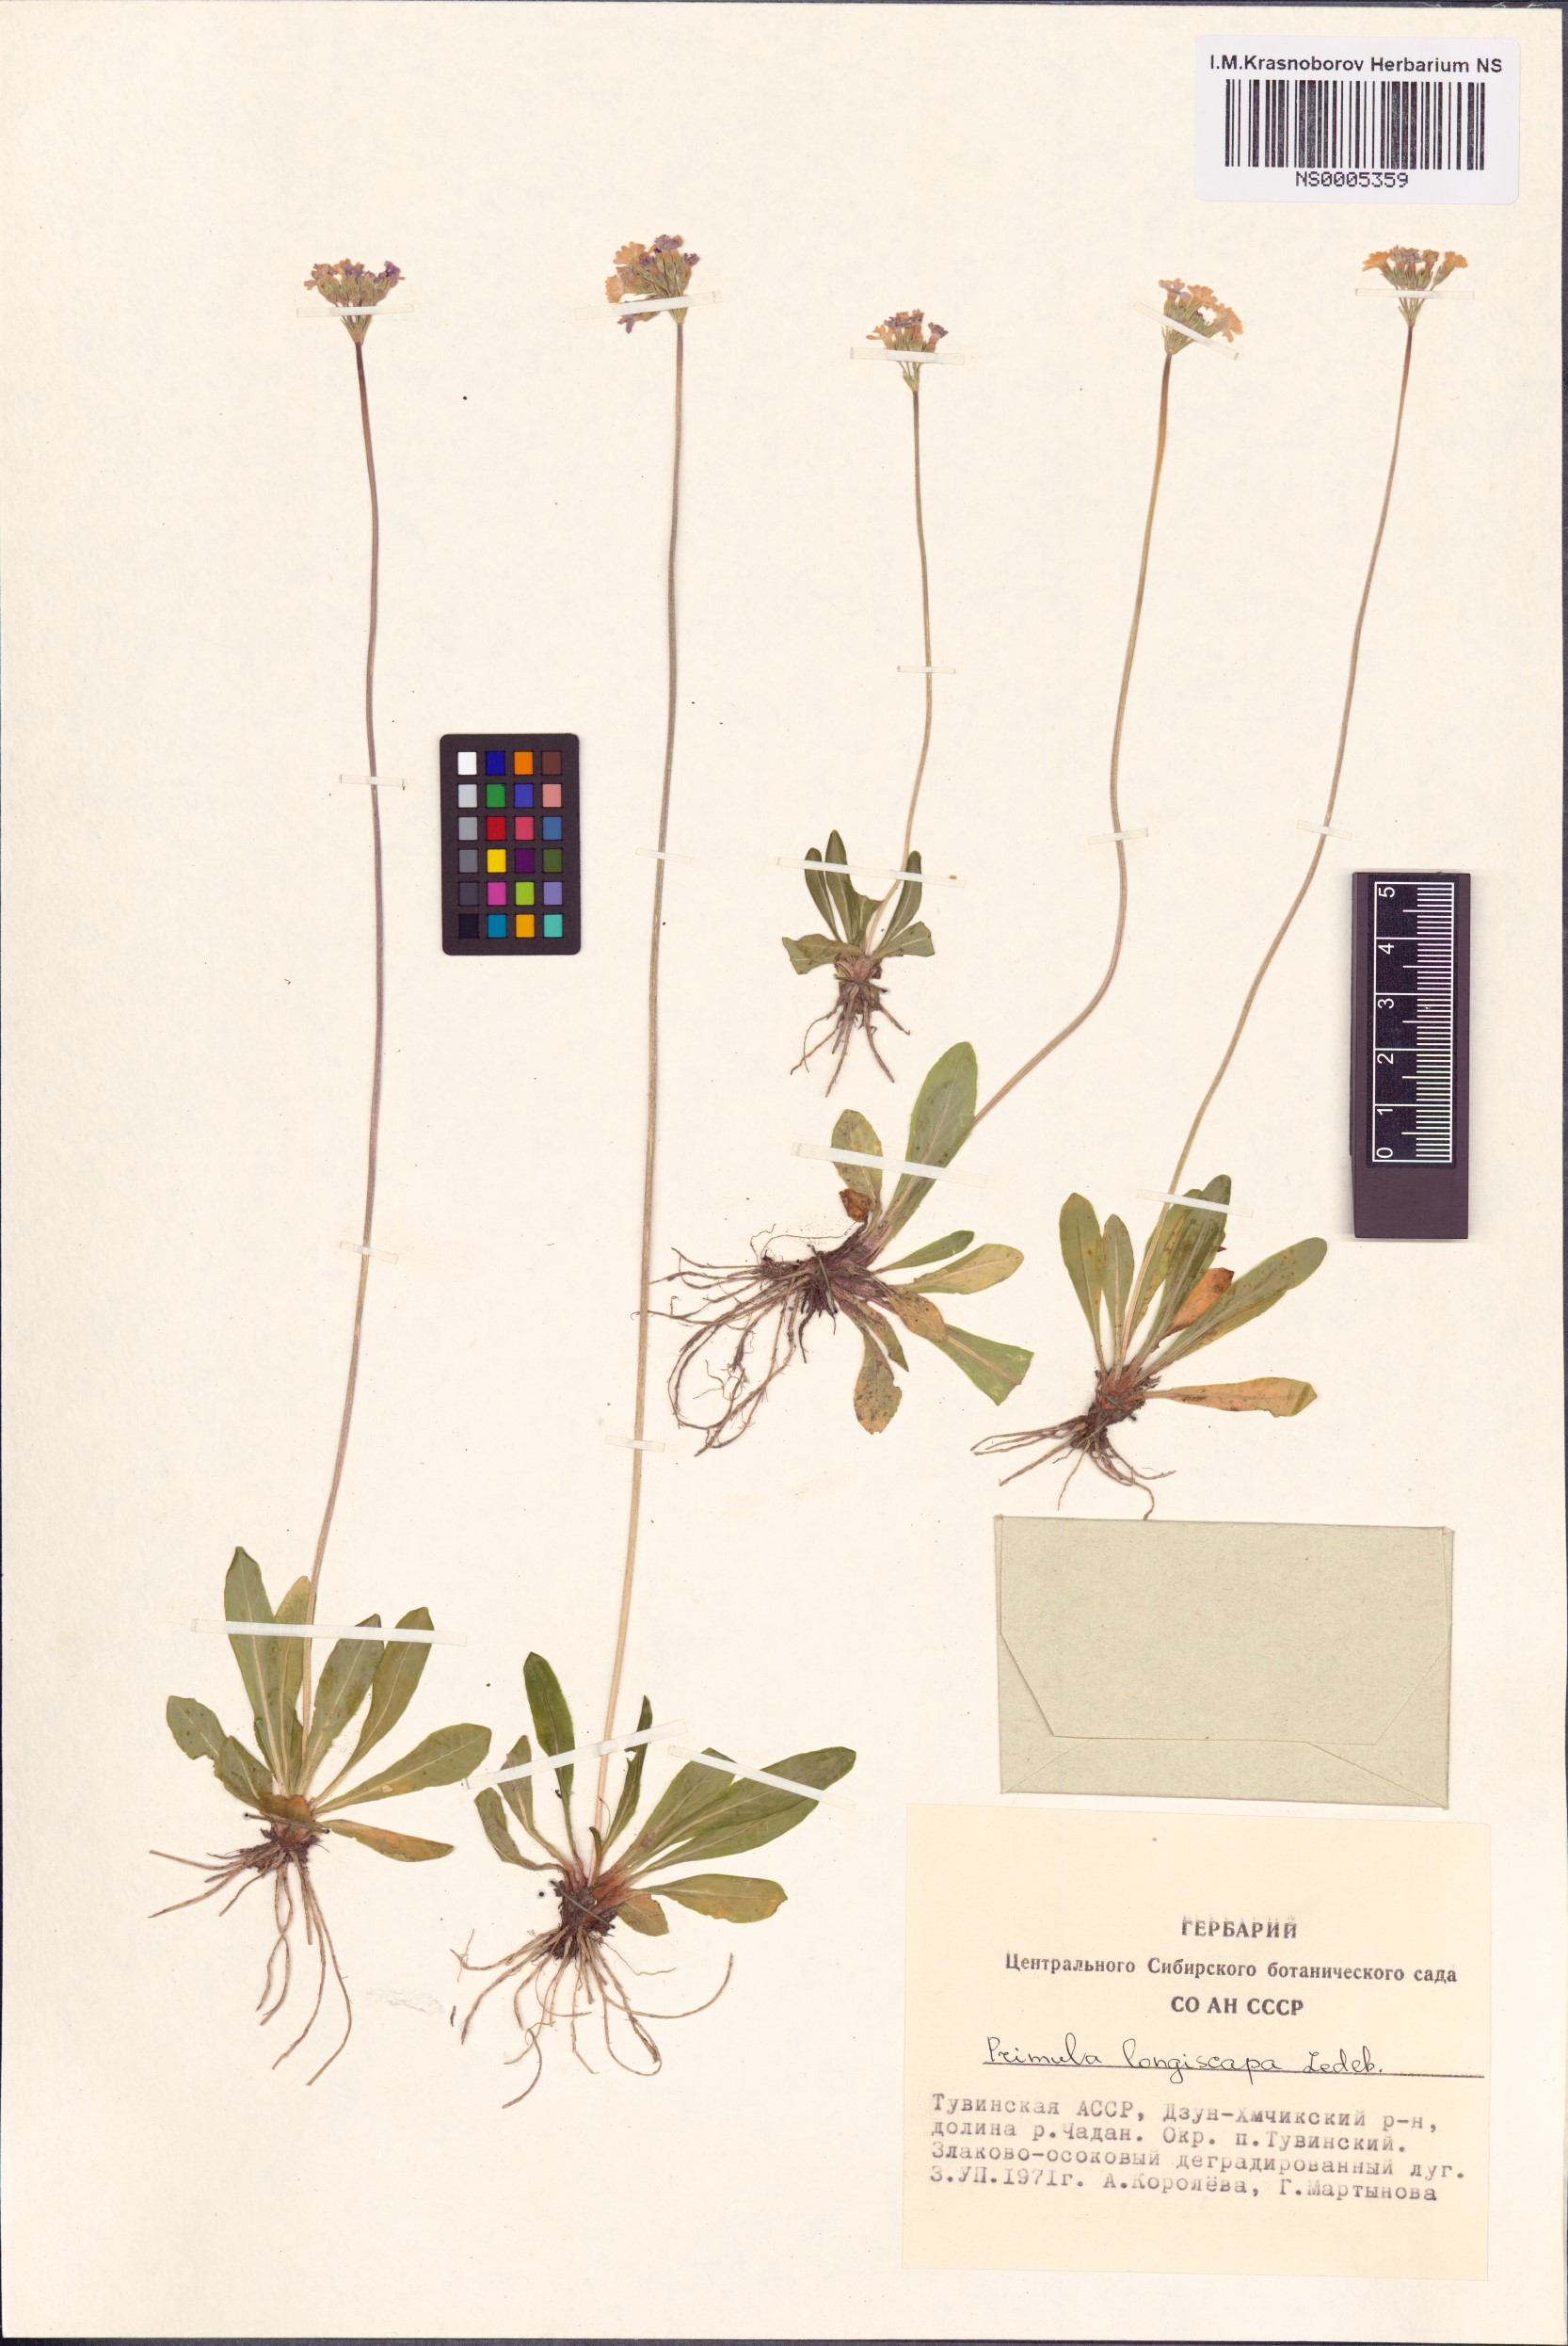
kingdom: Plantae
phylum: Tracheophyta
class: Magnoliopsida
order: Ericales
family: Primulaceae
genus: Primula
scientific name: Primula longiscapa
